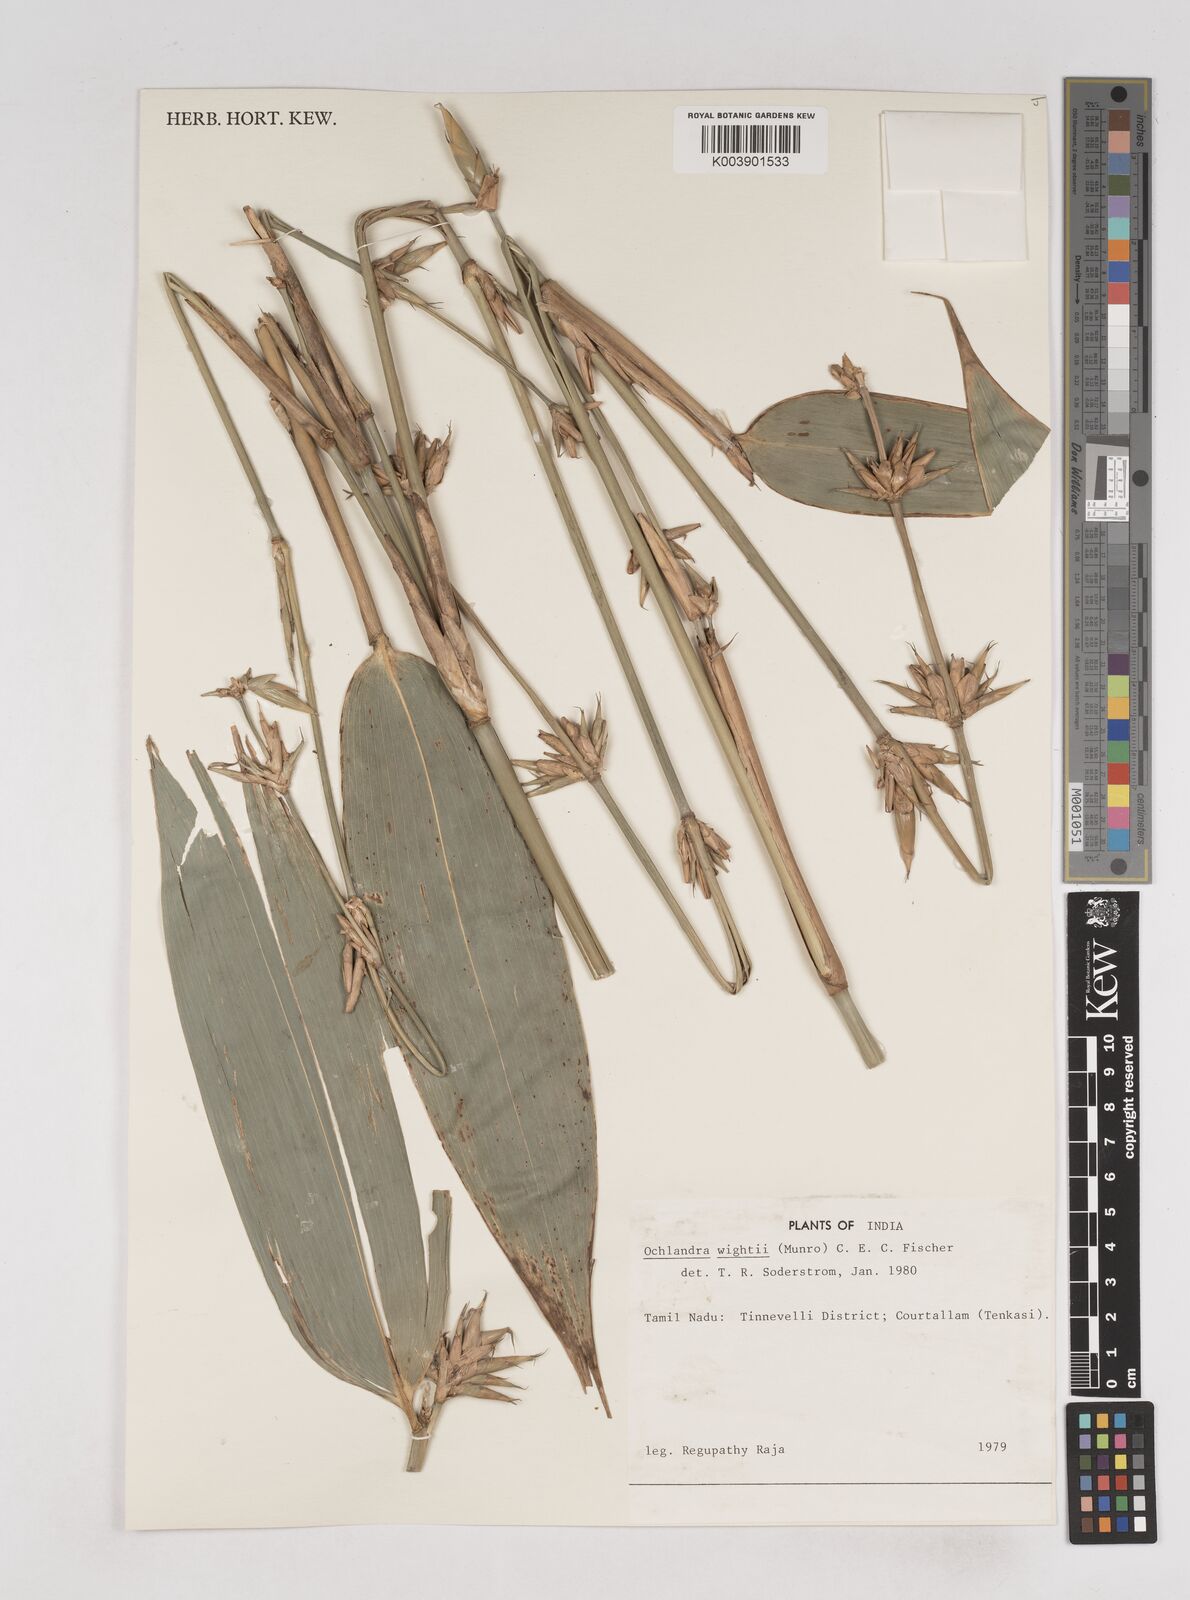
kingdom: Plantae
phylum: Tracheophyta
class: Liliopsida
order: Poales
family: Poaceae
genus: Ochlandra
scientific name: Ochlandra
